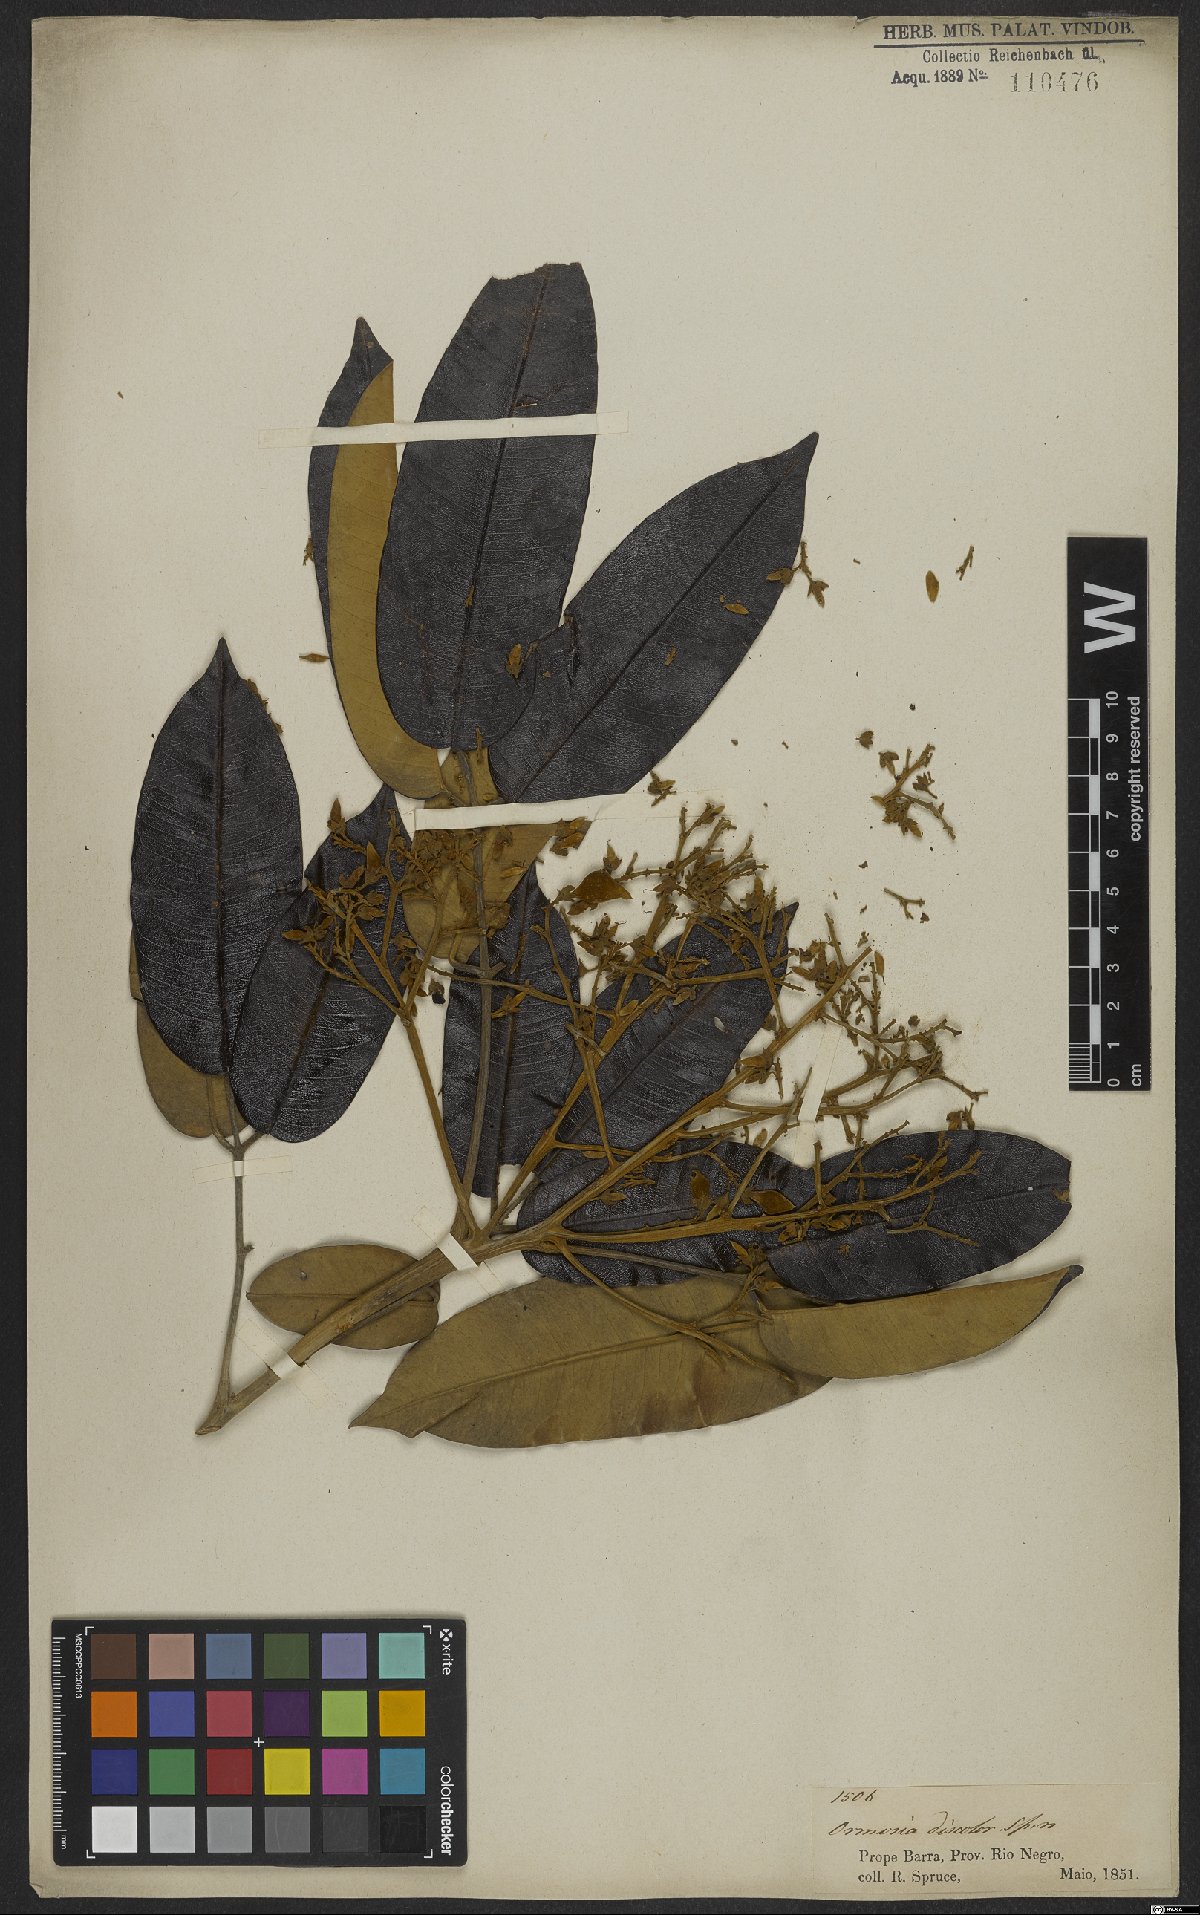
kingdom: Plantae
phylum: Tracheophyta
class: Magnoliopsida
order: Fabales
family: Fabaceae
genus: Ormosia
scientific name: Ormosia discolor
